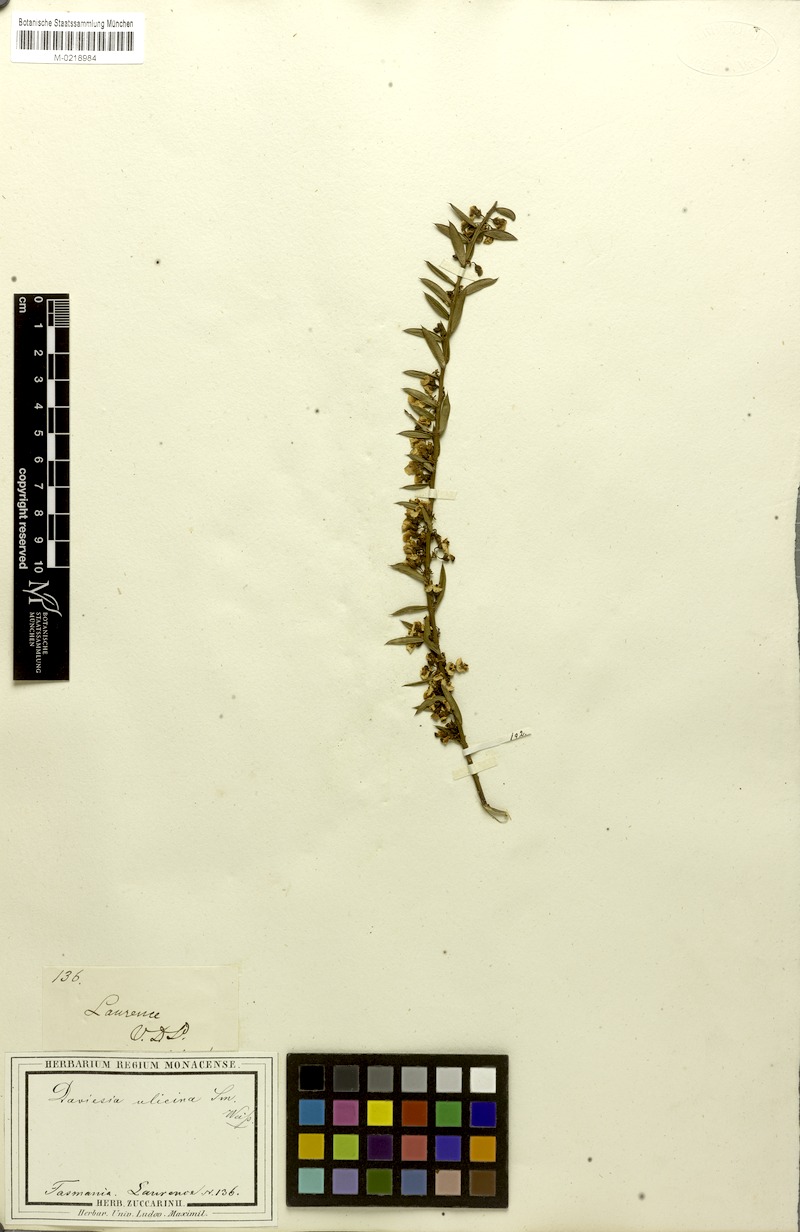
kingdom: Plantae
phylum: Tracheophyta
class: Magnoliopsida
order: Fabales
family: Fabaceae
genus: Daviesia
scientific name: Daviesia ulicifolia
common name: Gorse bitter-pea
